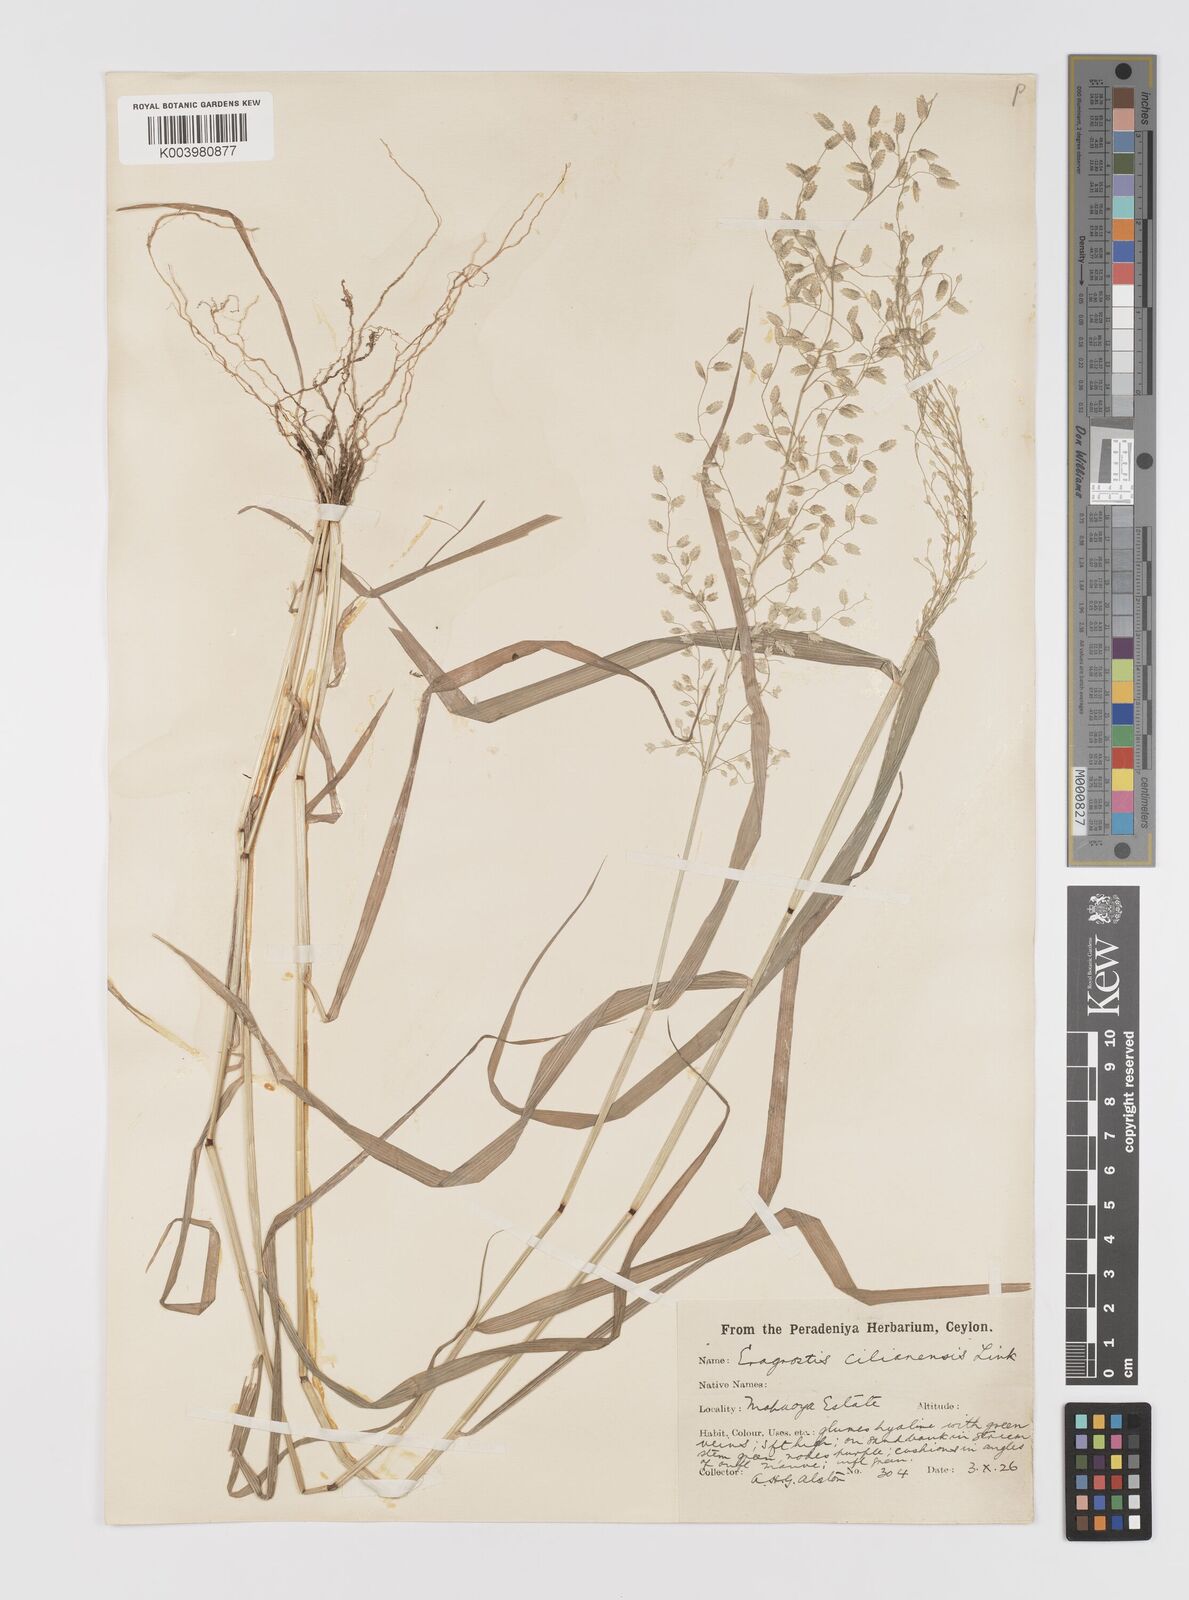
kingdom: Plantae
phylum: Tracheophyta
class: Liliopsida
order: Poales
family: Poaceae
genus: Eragrostis
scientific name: Eragrostis cilianensis
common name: Stinkgrass
